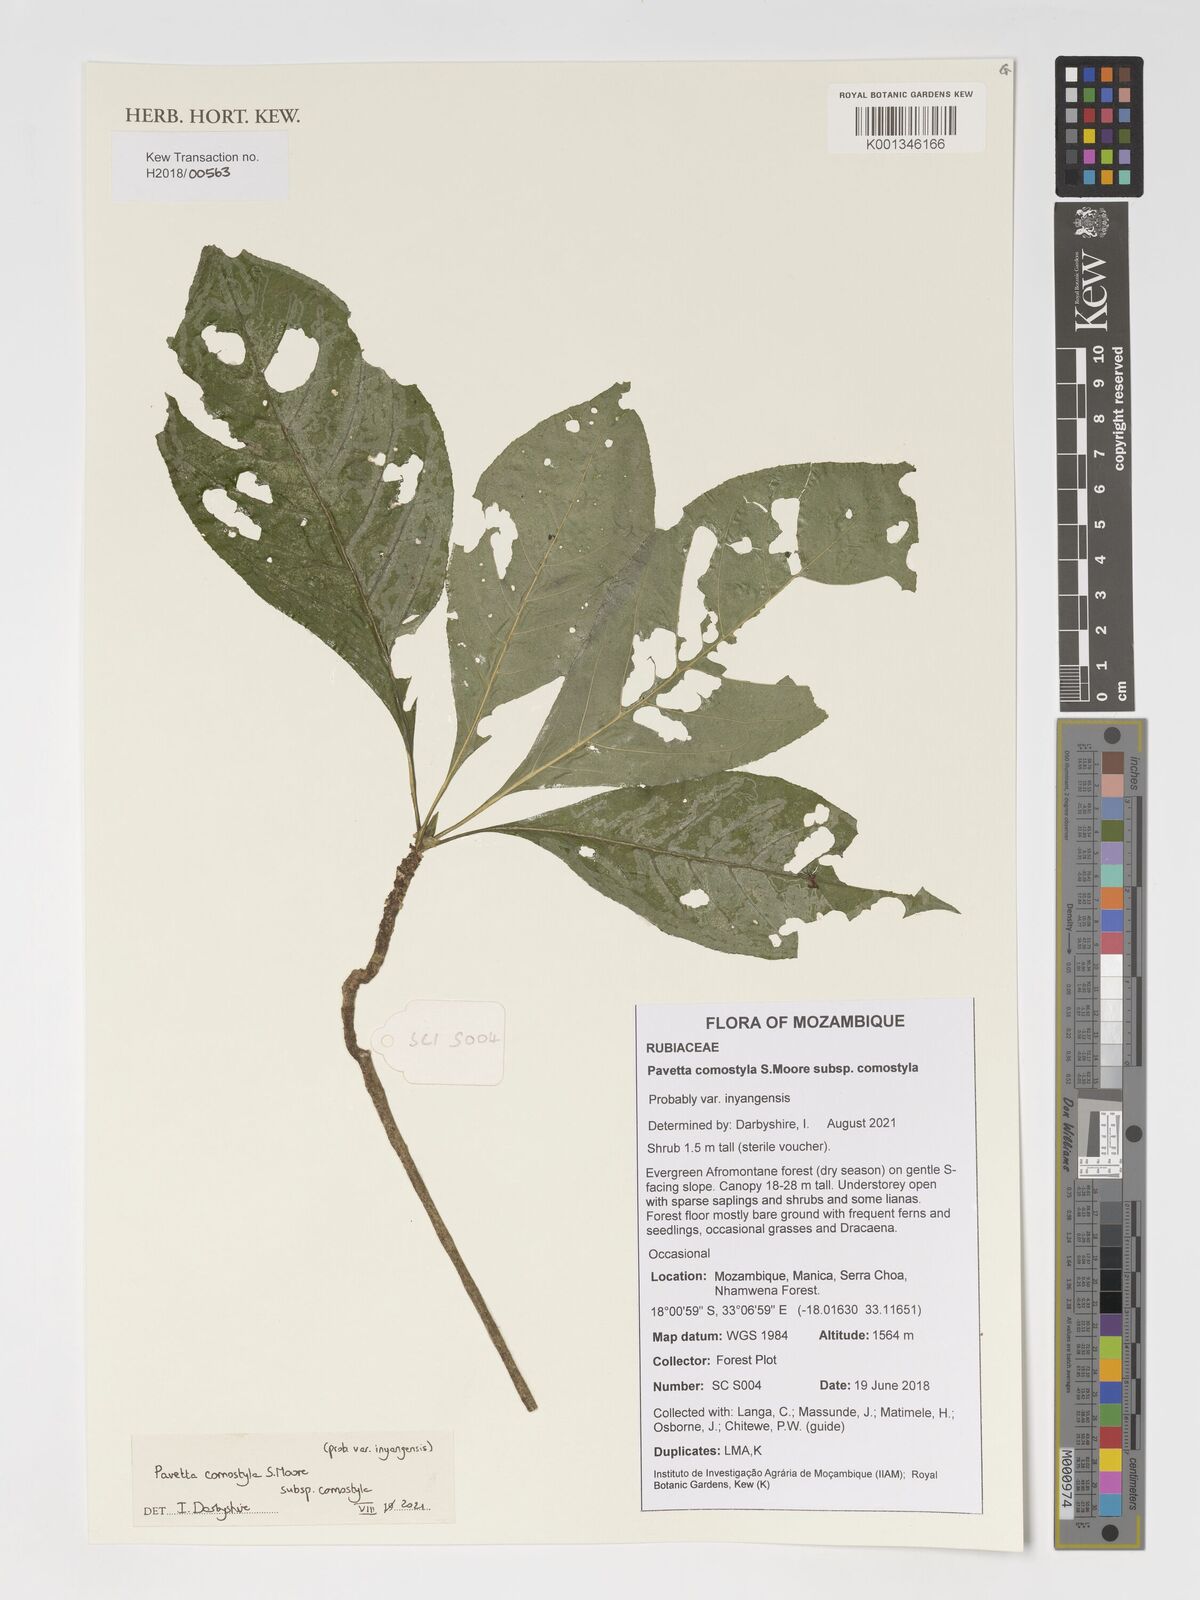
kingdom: Plantae
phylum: Tracheophyta
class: Magnoliopsida
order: Gentianales
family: Rubiaceae
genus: Pavetta
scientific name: Pavetta comostyla
